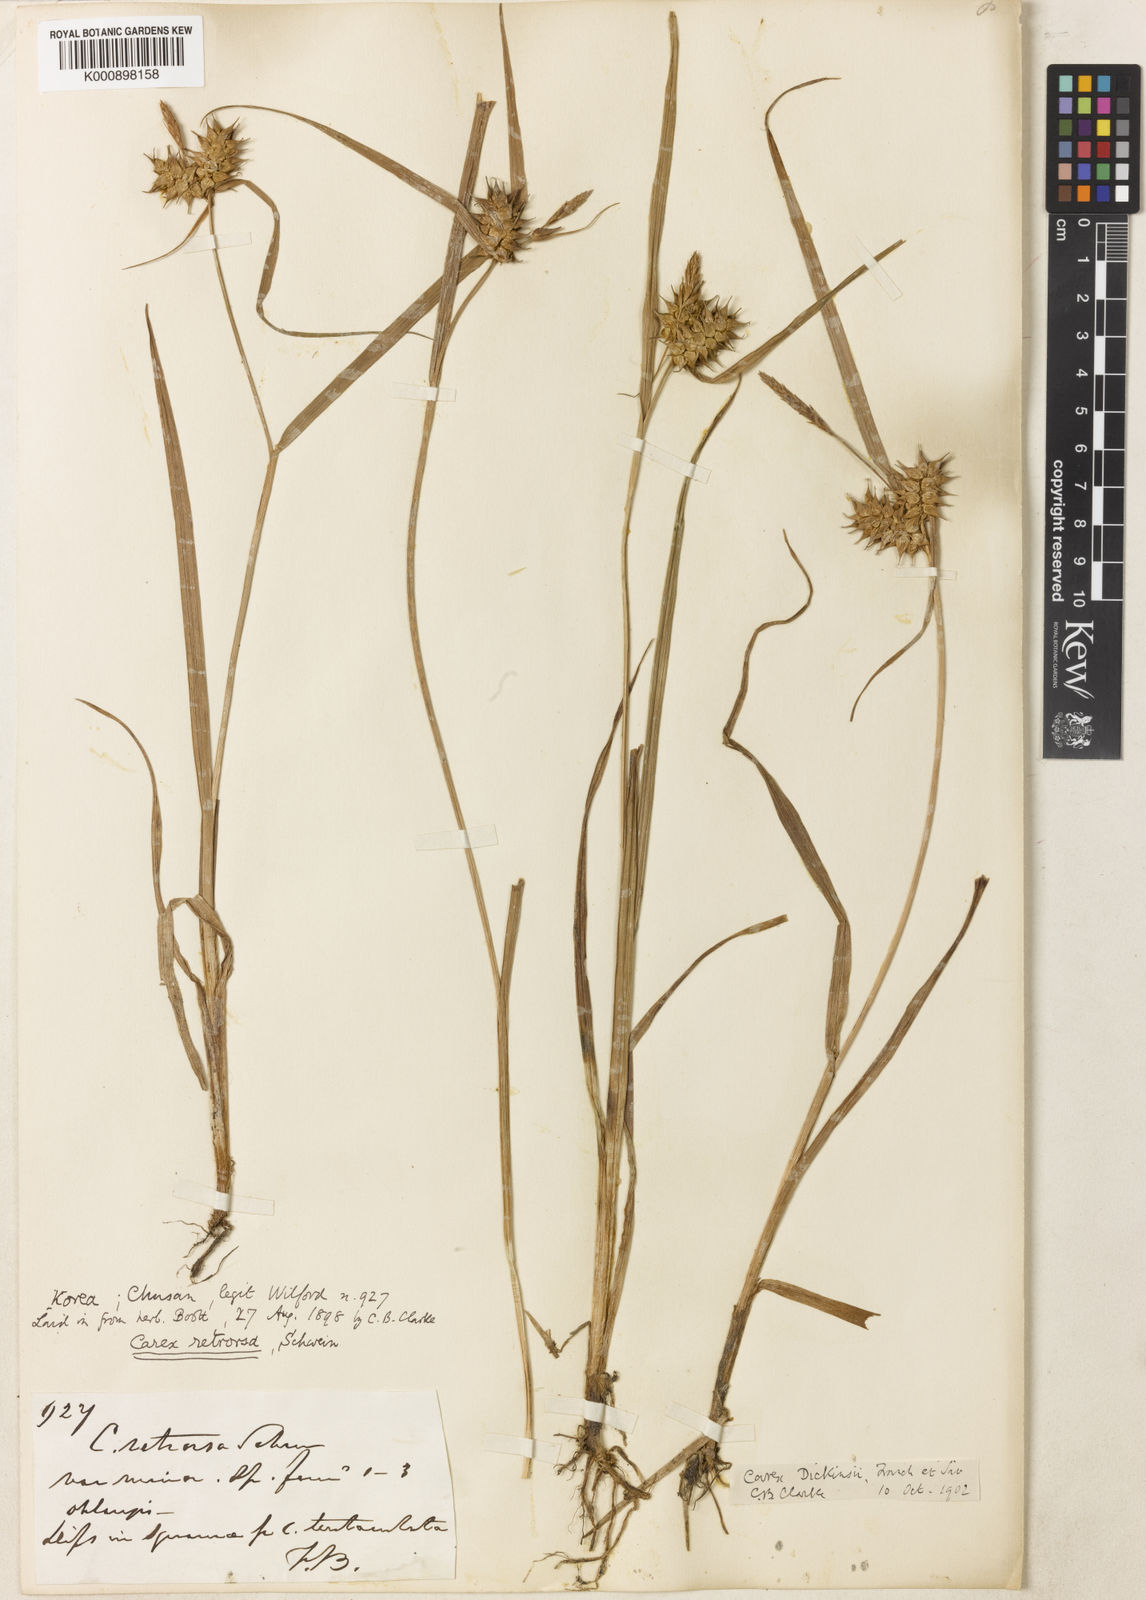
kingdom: Plantae
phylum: Tracheophyta
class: Liliopsida
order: Poales
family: Cyperaceae
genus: Carex
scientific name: Carex dickinsii
